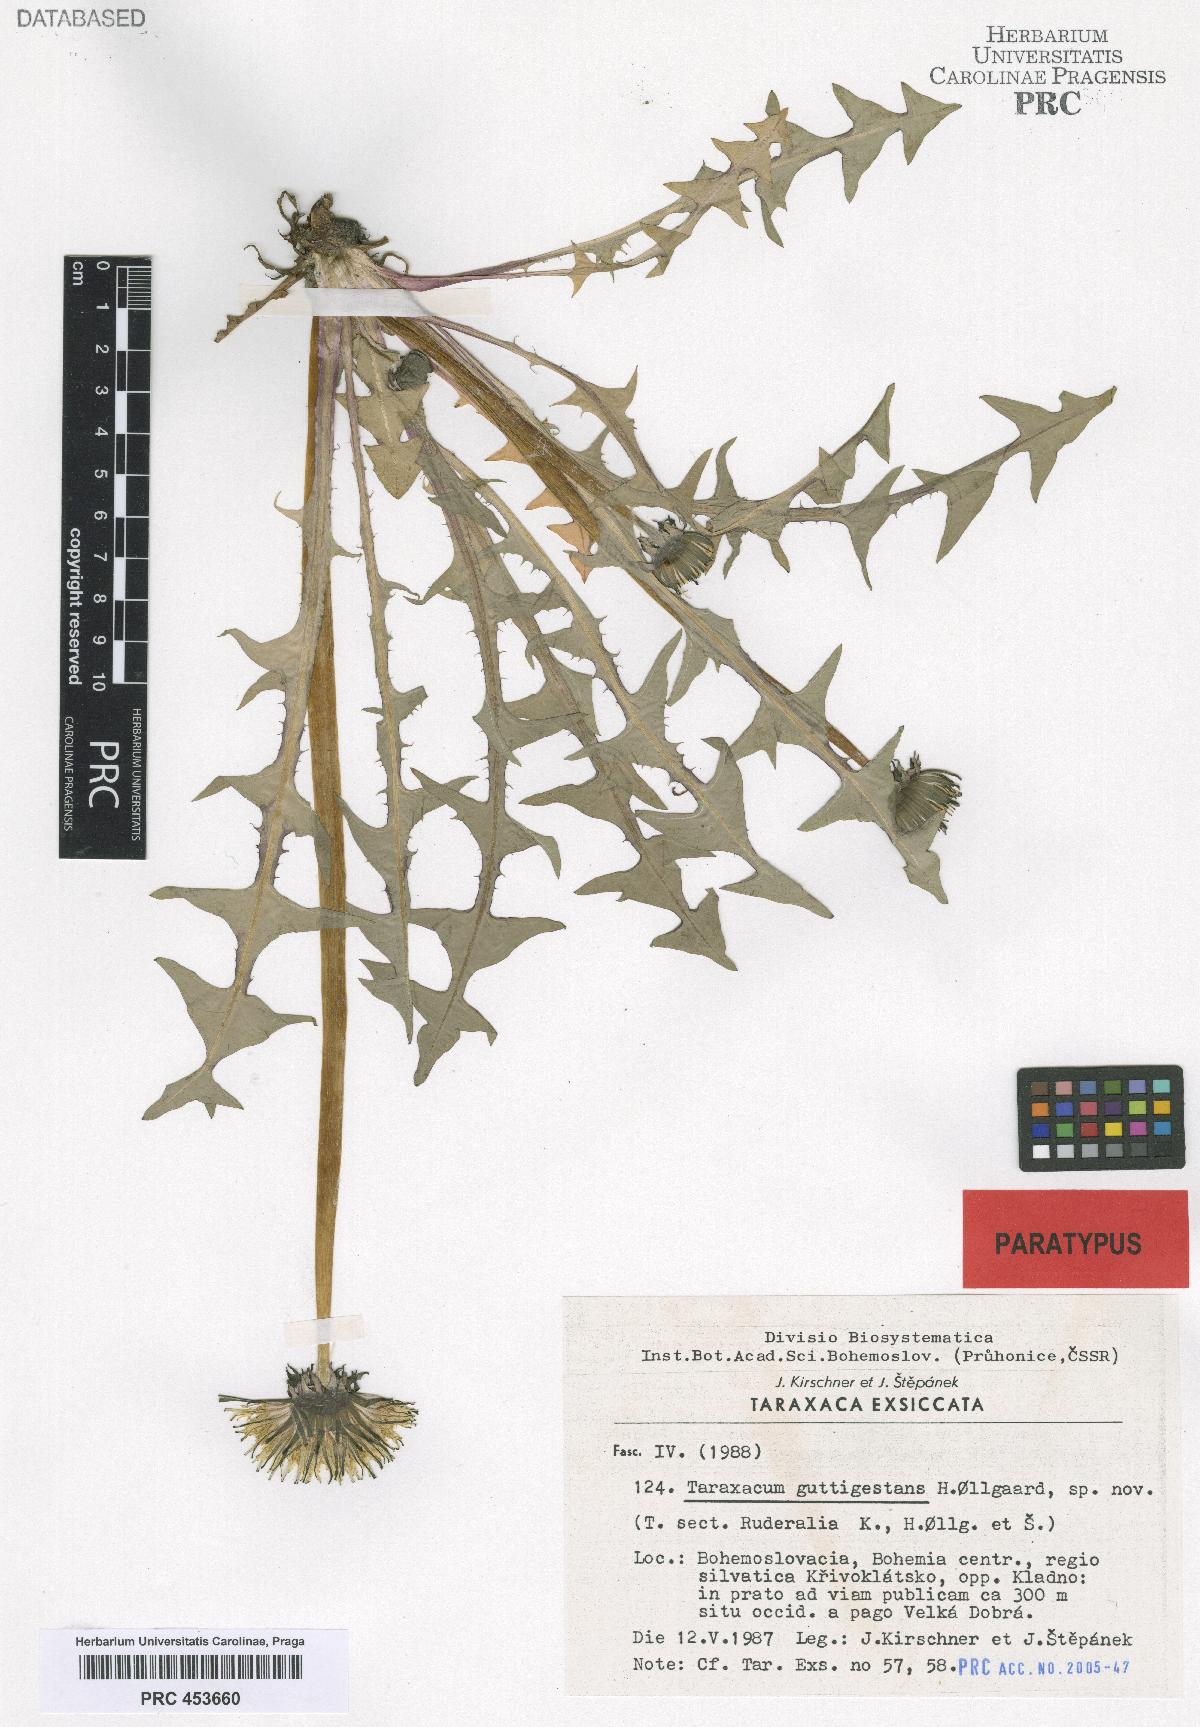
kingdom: Plantae
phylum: Tracheophyta
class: Magnoliopsida
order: Asterales
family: Asteraceae
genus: Taraxacum
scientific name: Taraxacum guttigestans
